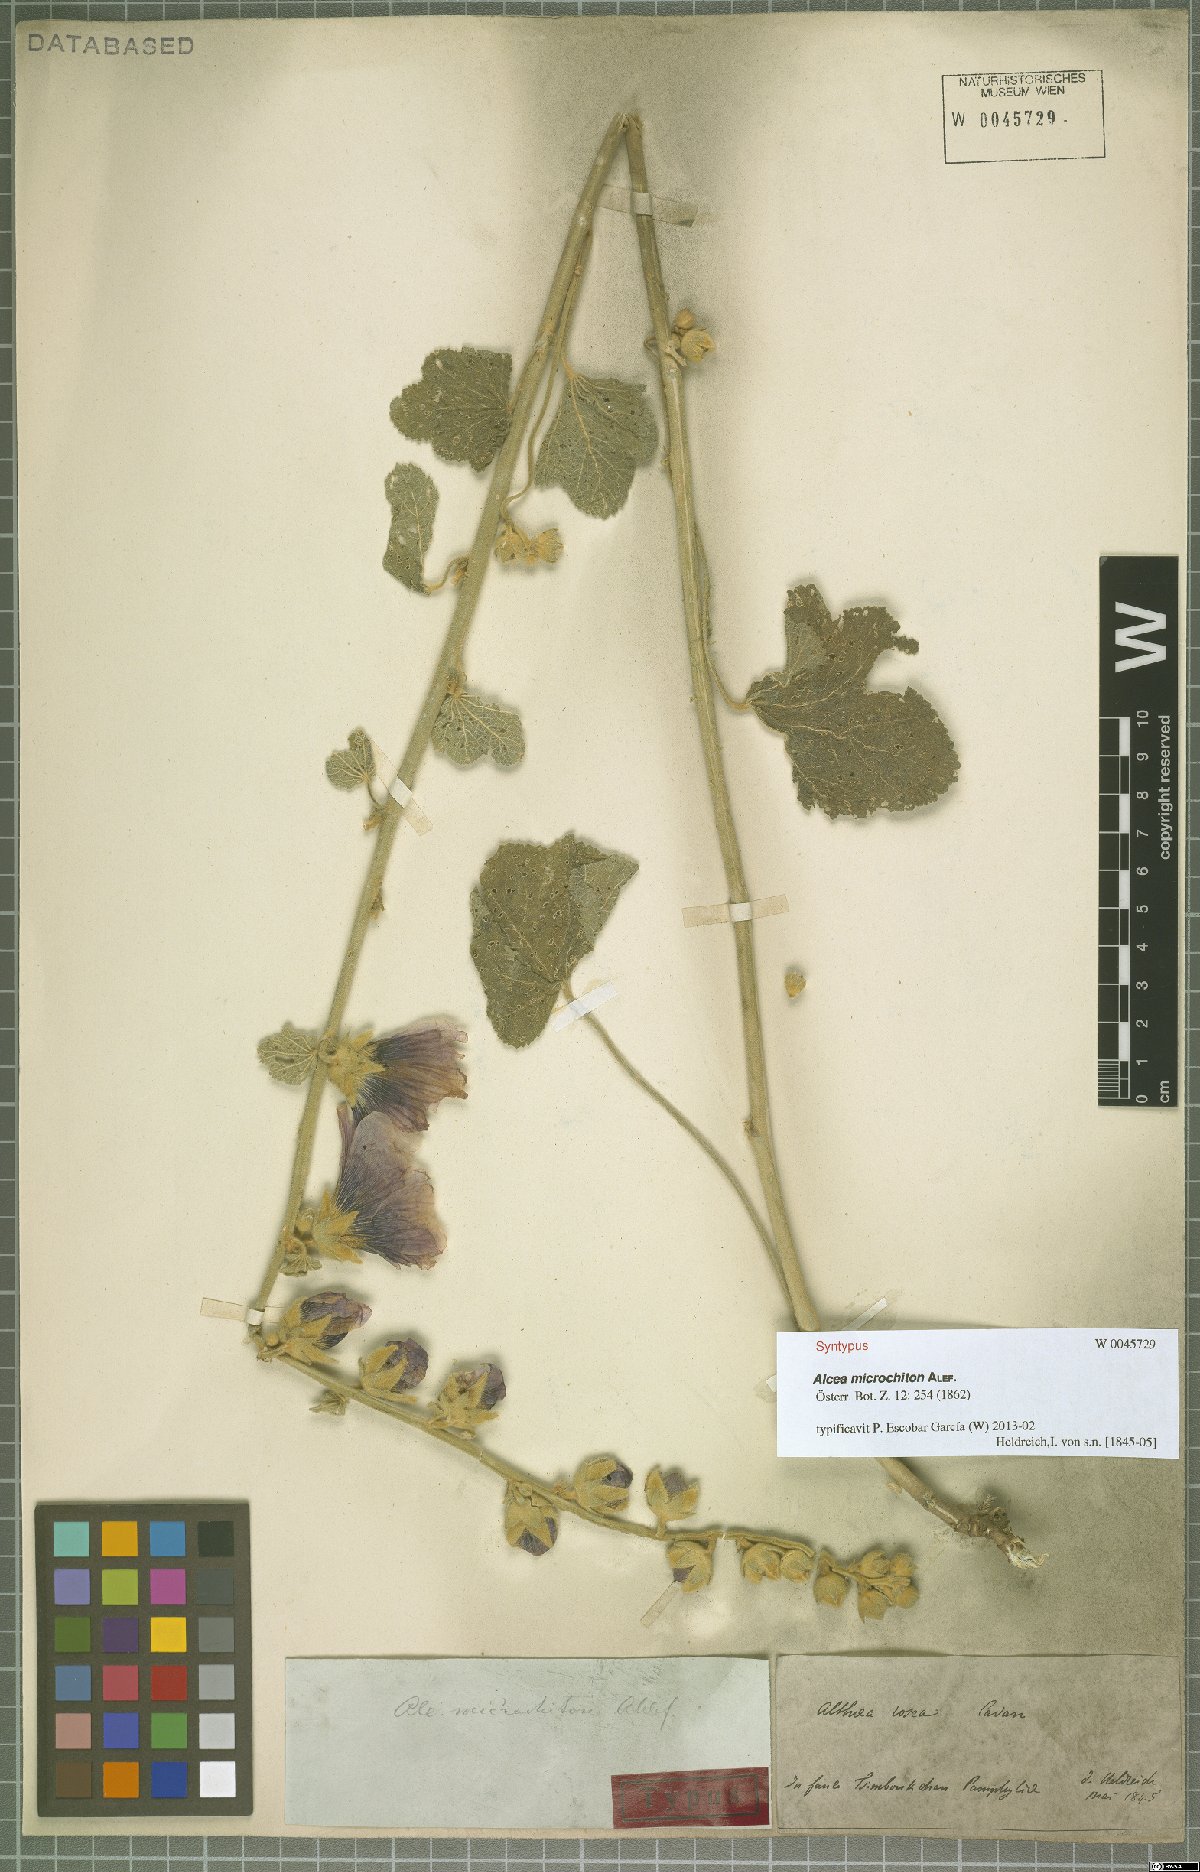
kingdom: Plantae
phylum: Tracheophyta
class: Magnoliopsida
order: Malvales
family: Malvaceae
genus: Alcea
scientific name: Alcea rosea
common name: Hollyhock
